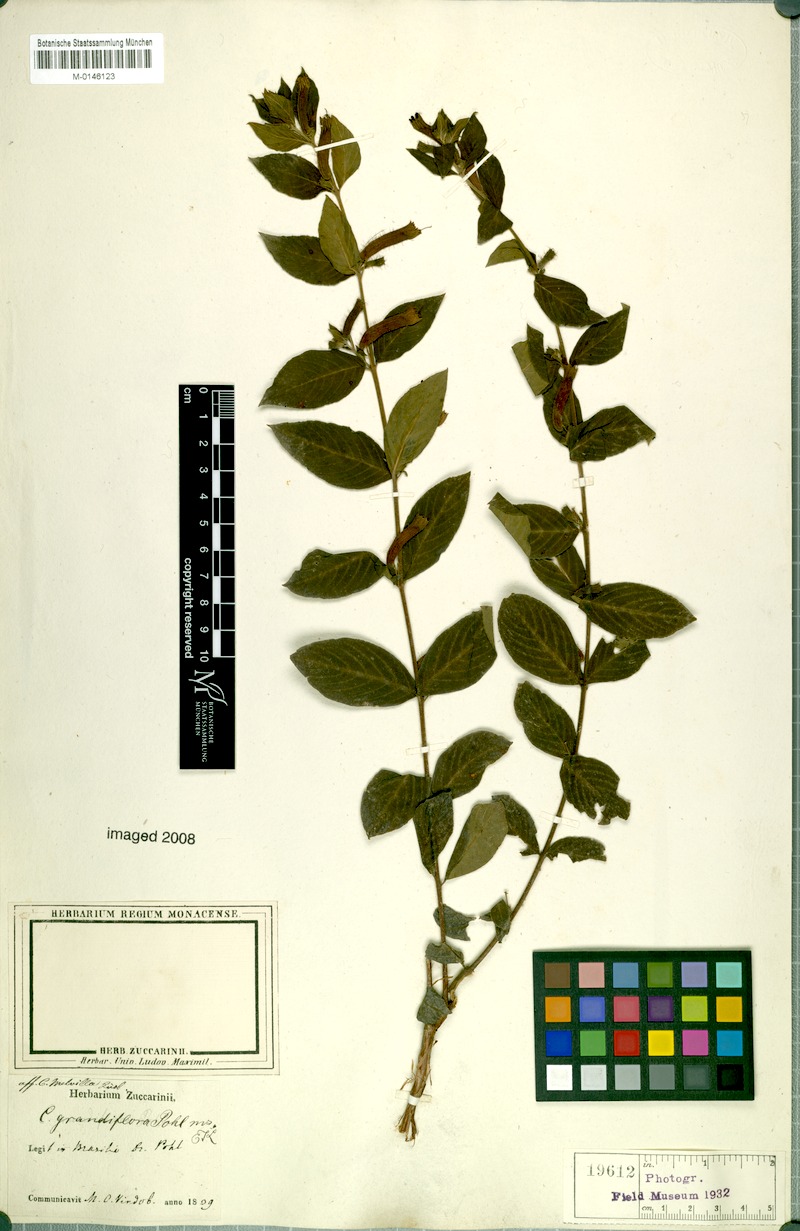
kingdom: Plantae
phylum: Tracheophyta
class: Magnoliopsida
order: Myrtales
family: Lythraceae
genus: Cuphea
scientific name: Cuphea grandiflora
